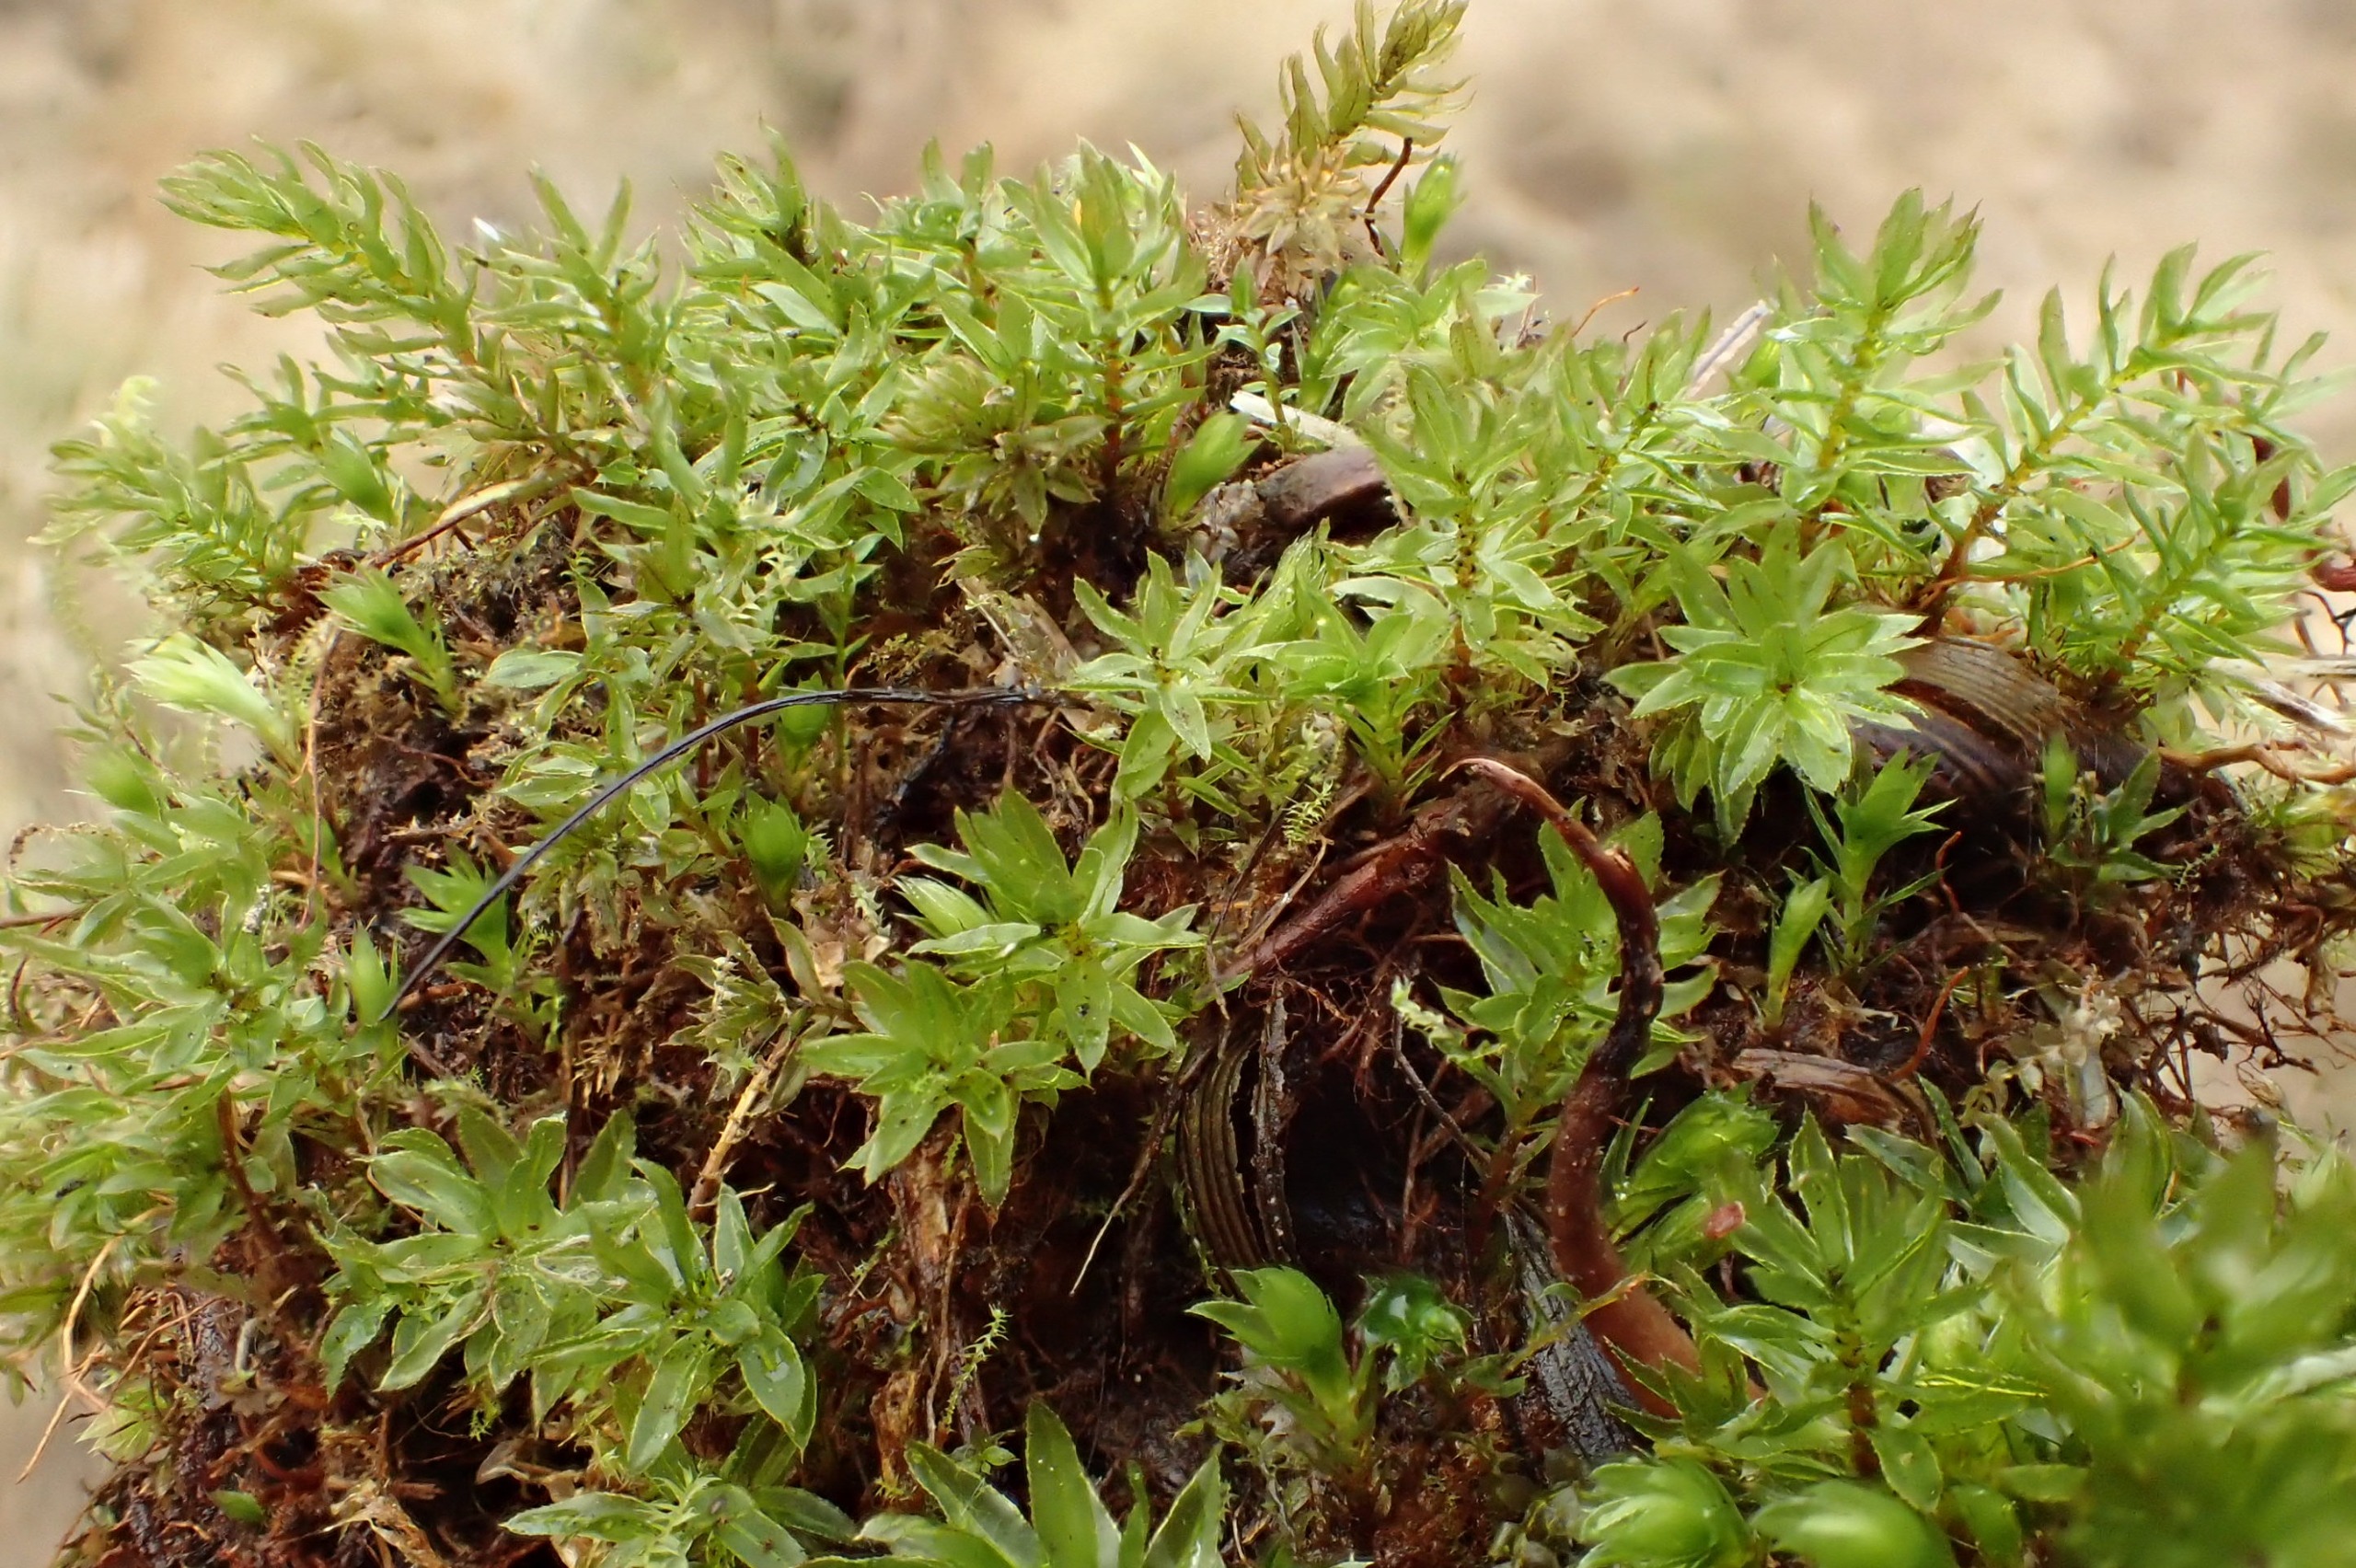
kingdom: Plantae
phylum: Bryophyta
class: Bryopsida
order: Bryales
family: Mniaceae
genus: Mnium
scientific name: Mnium hornum
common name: Brunfiltet stjernemos
